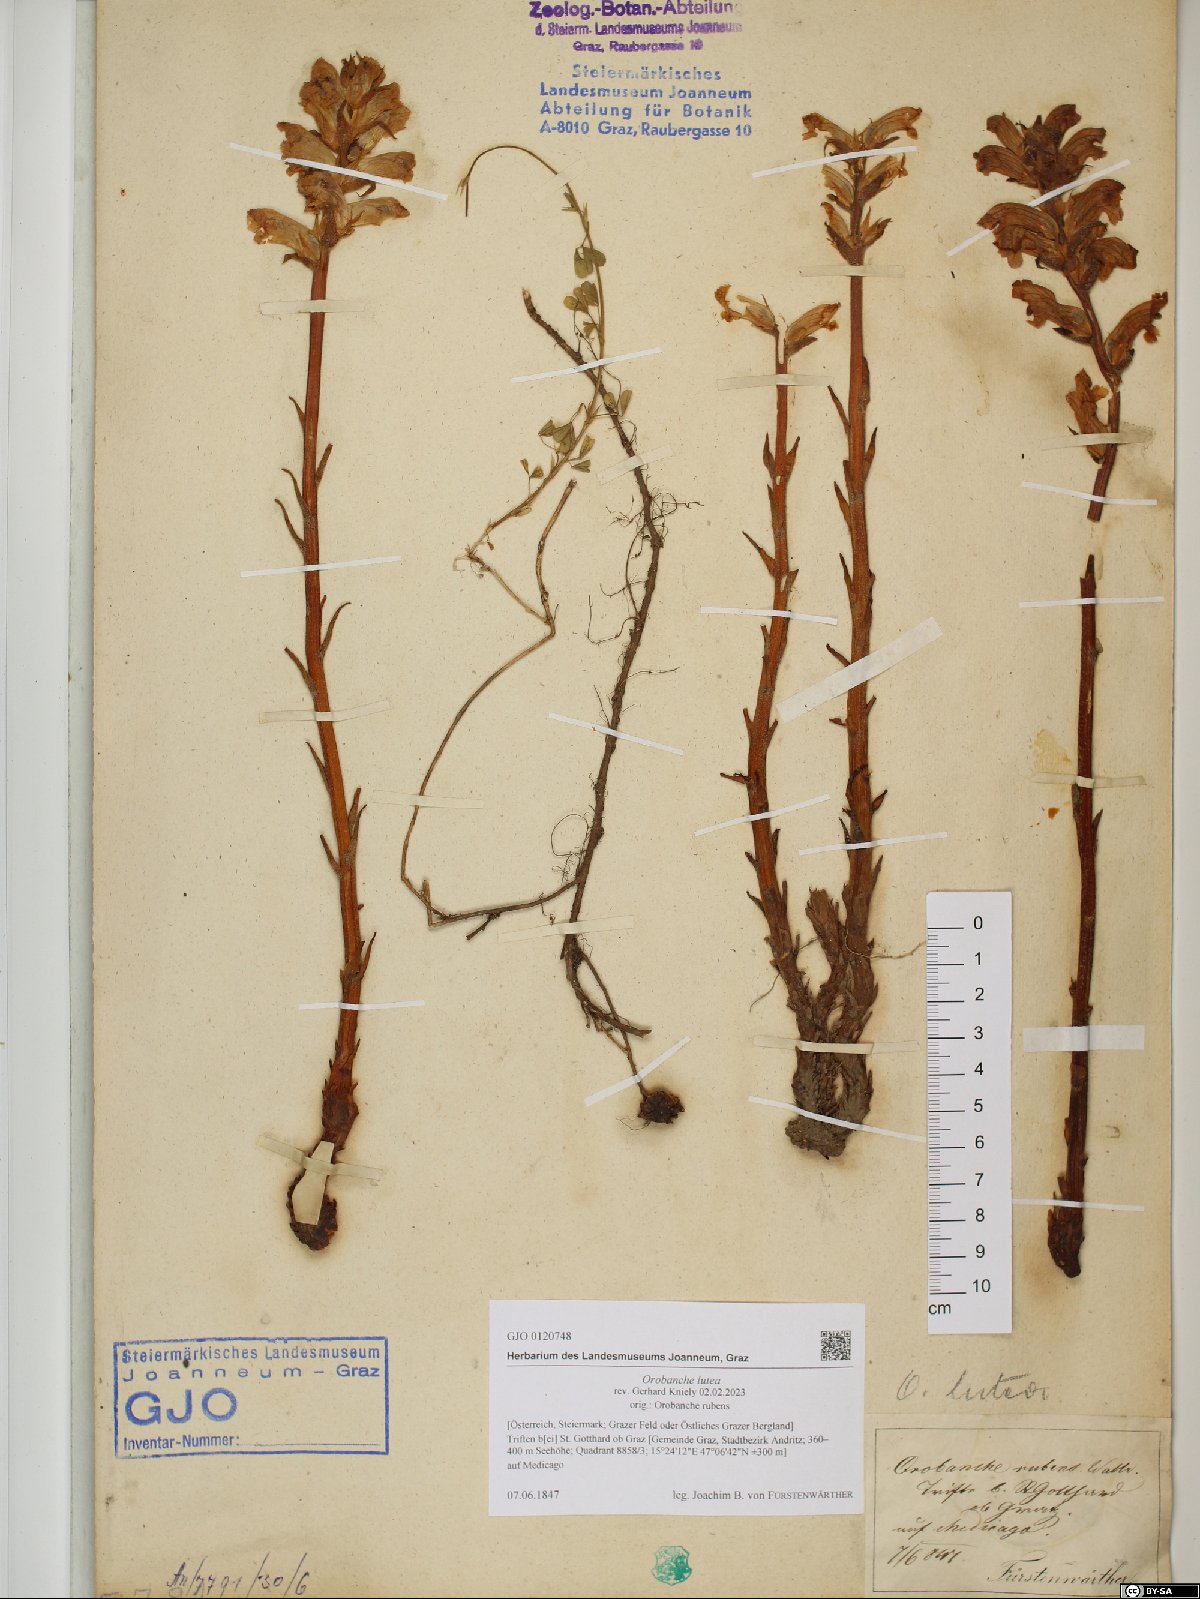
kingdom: Plantae
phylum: Tracheophyta
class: Magnoliopsida
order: Lamiales
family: Orobanchaceae
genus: Orobanche
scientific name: Orobanche lutea
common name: Yellow broomrape
